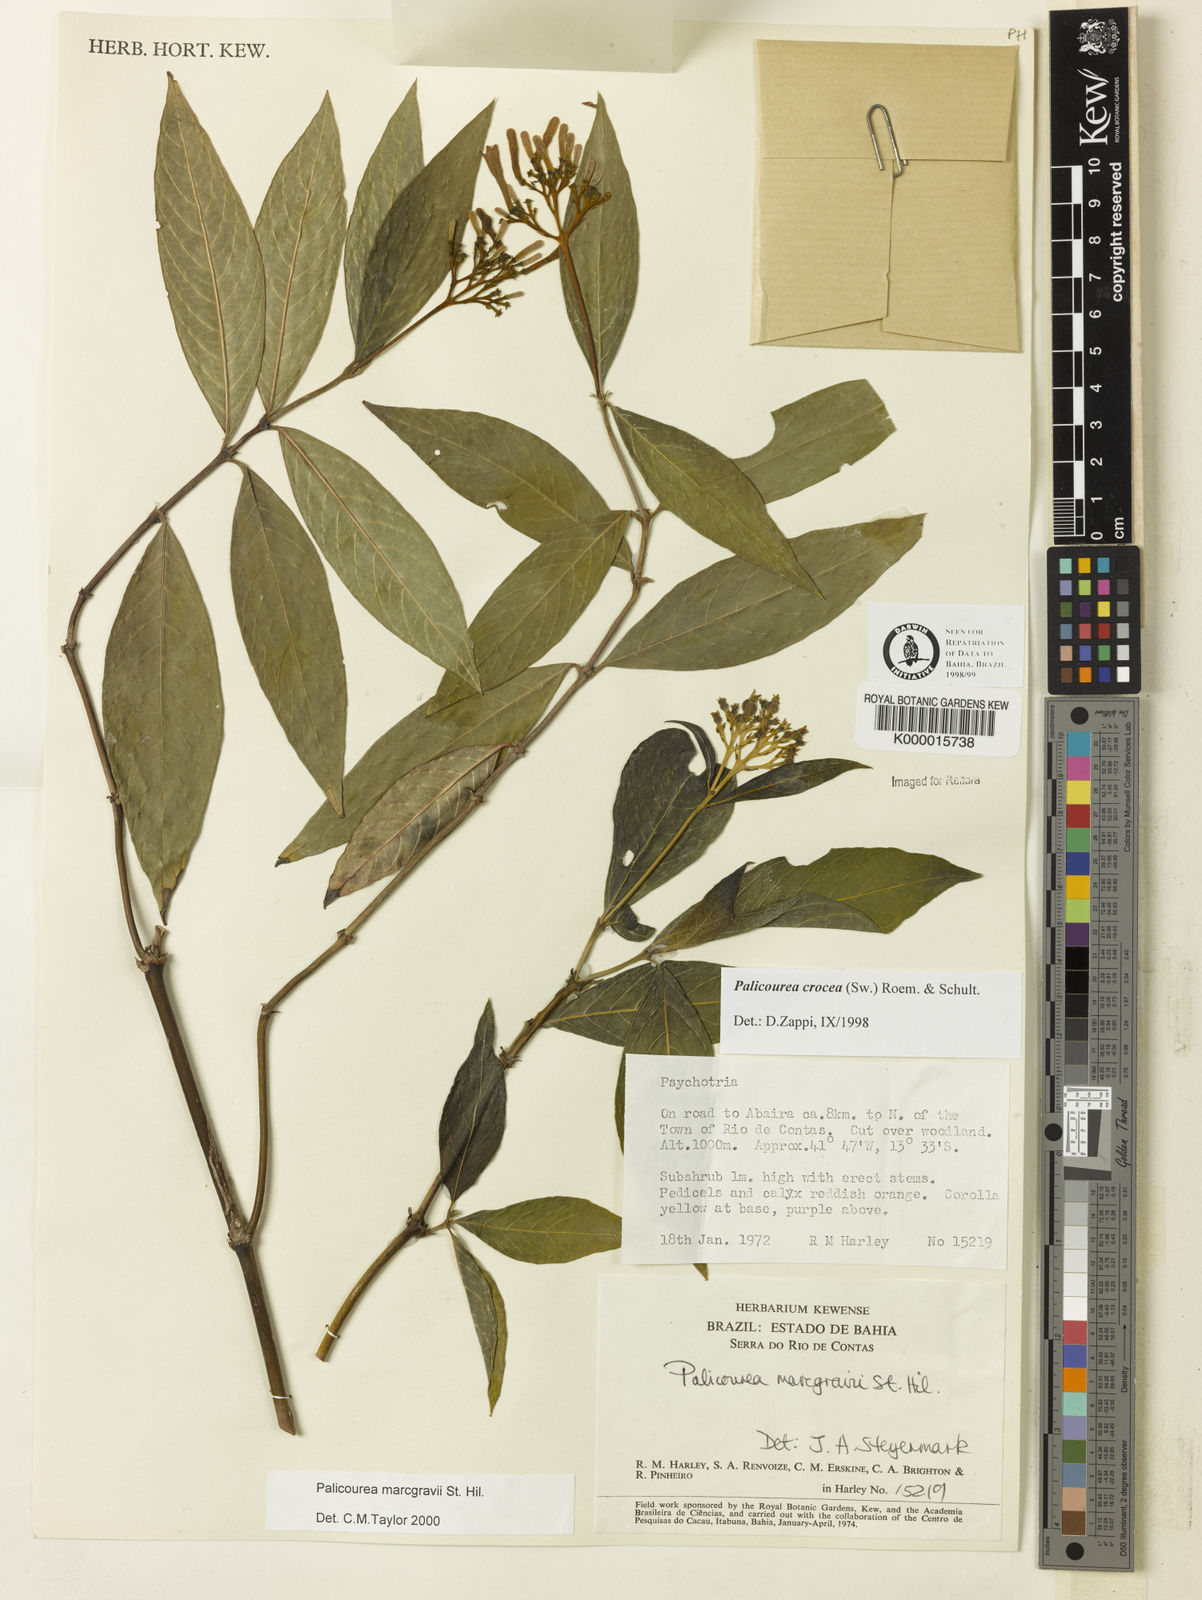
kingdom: Plantae
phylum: Tracheophyta
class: Magnoliopsida
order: Gentianales
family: Rubiaceae
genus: Palicourea
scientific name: Palicourea marcgravii
